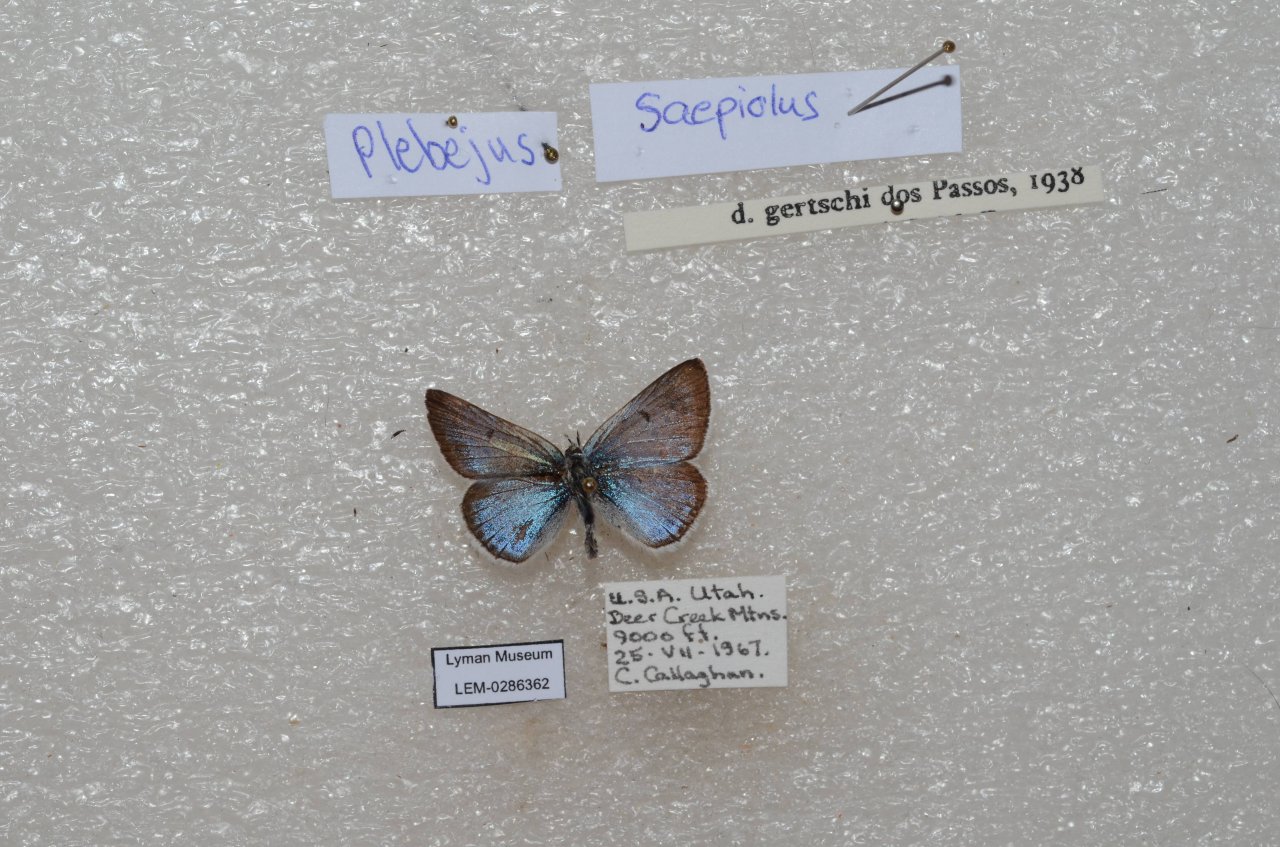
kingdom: Animalia
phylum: Arthropoda
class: Insecta
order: Lepidoptera
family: Lycaenidae
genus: Plebejus
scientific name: Plebejus saepiolus
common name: Greenish Blue
